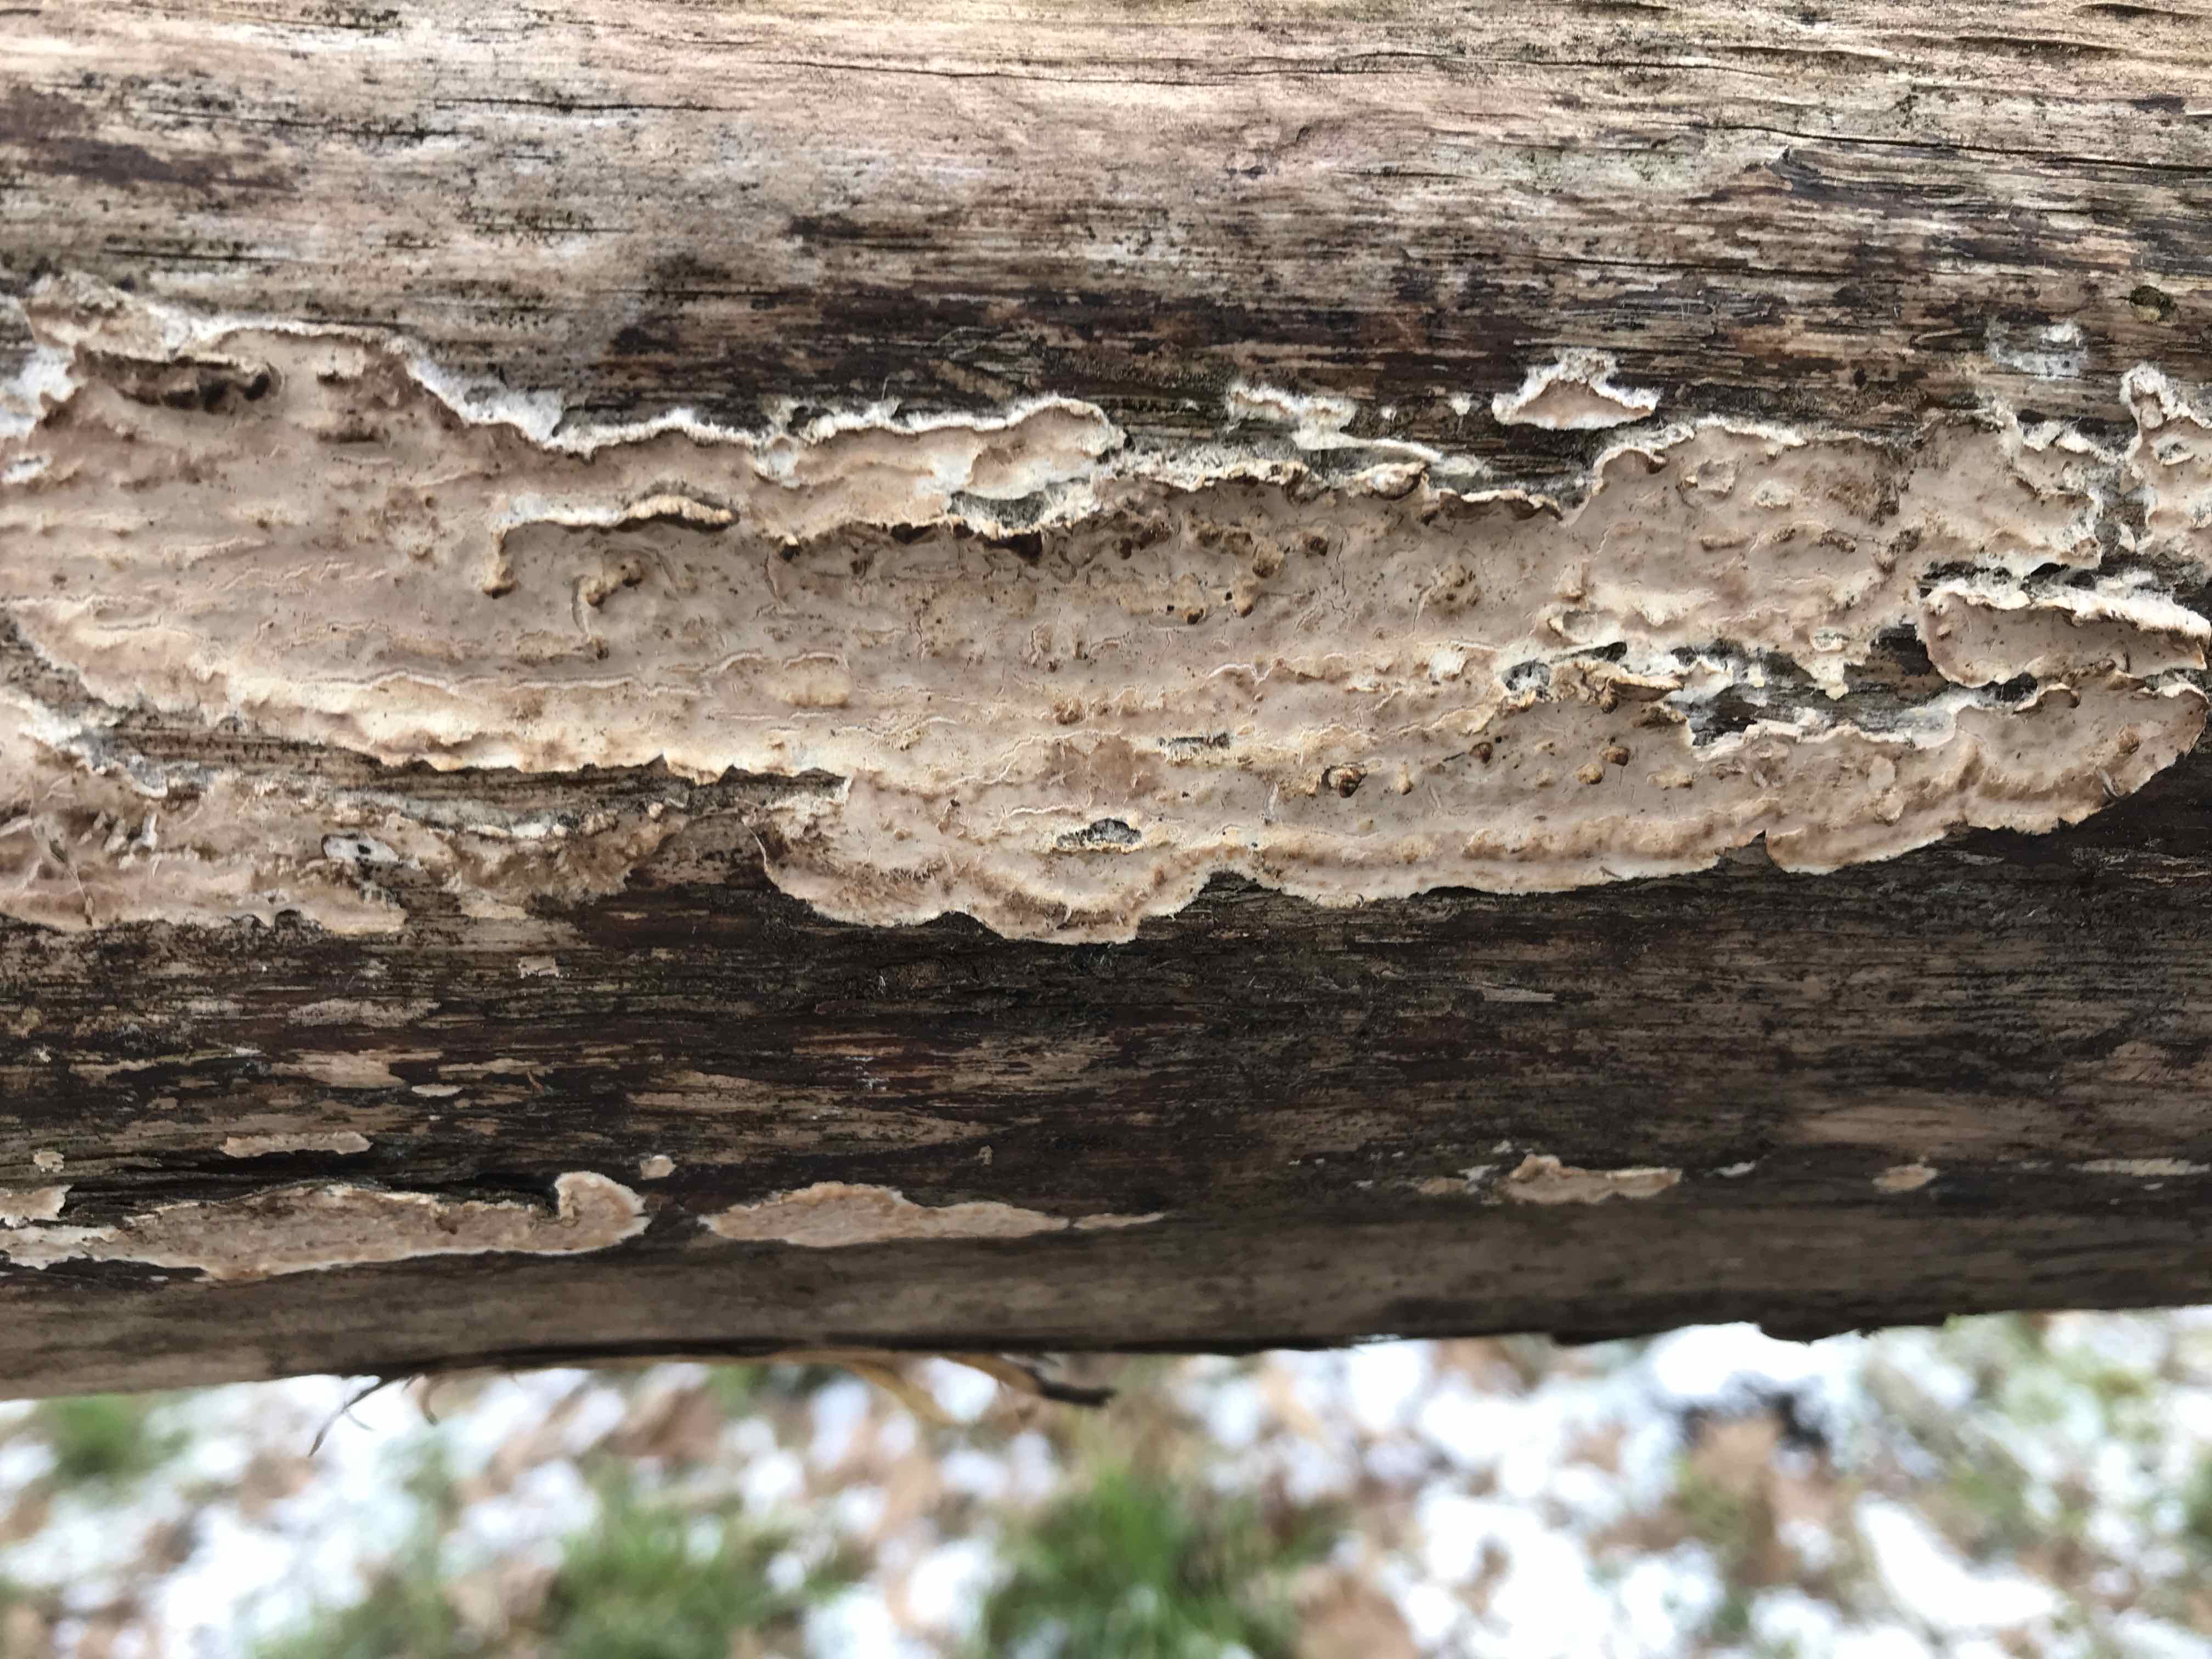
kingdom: Fungi
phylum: Basidiomycota
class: Agaricomycetes
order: Agaricales
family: Physalacriaceae
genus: Cylindrobasidium
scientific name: Cylindrobasidium evolvens
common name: sprækkehinde
